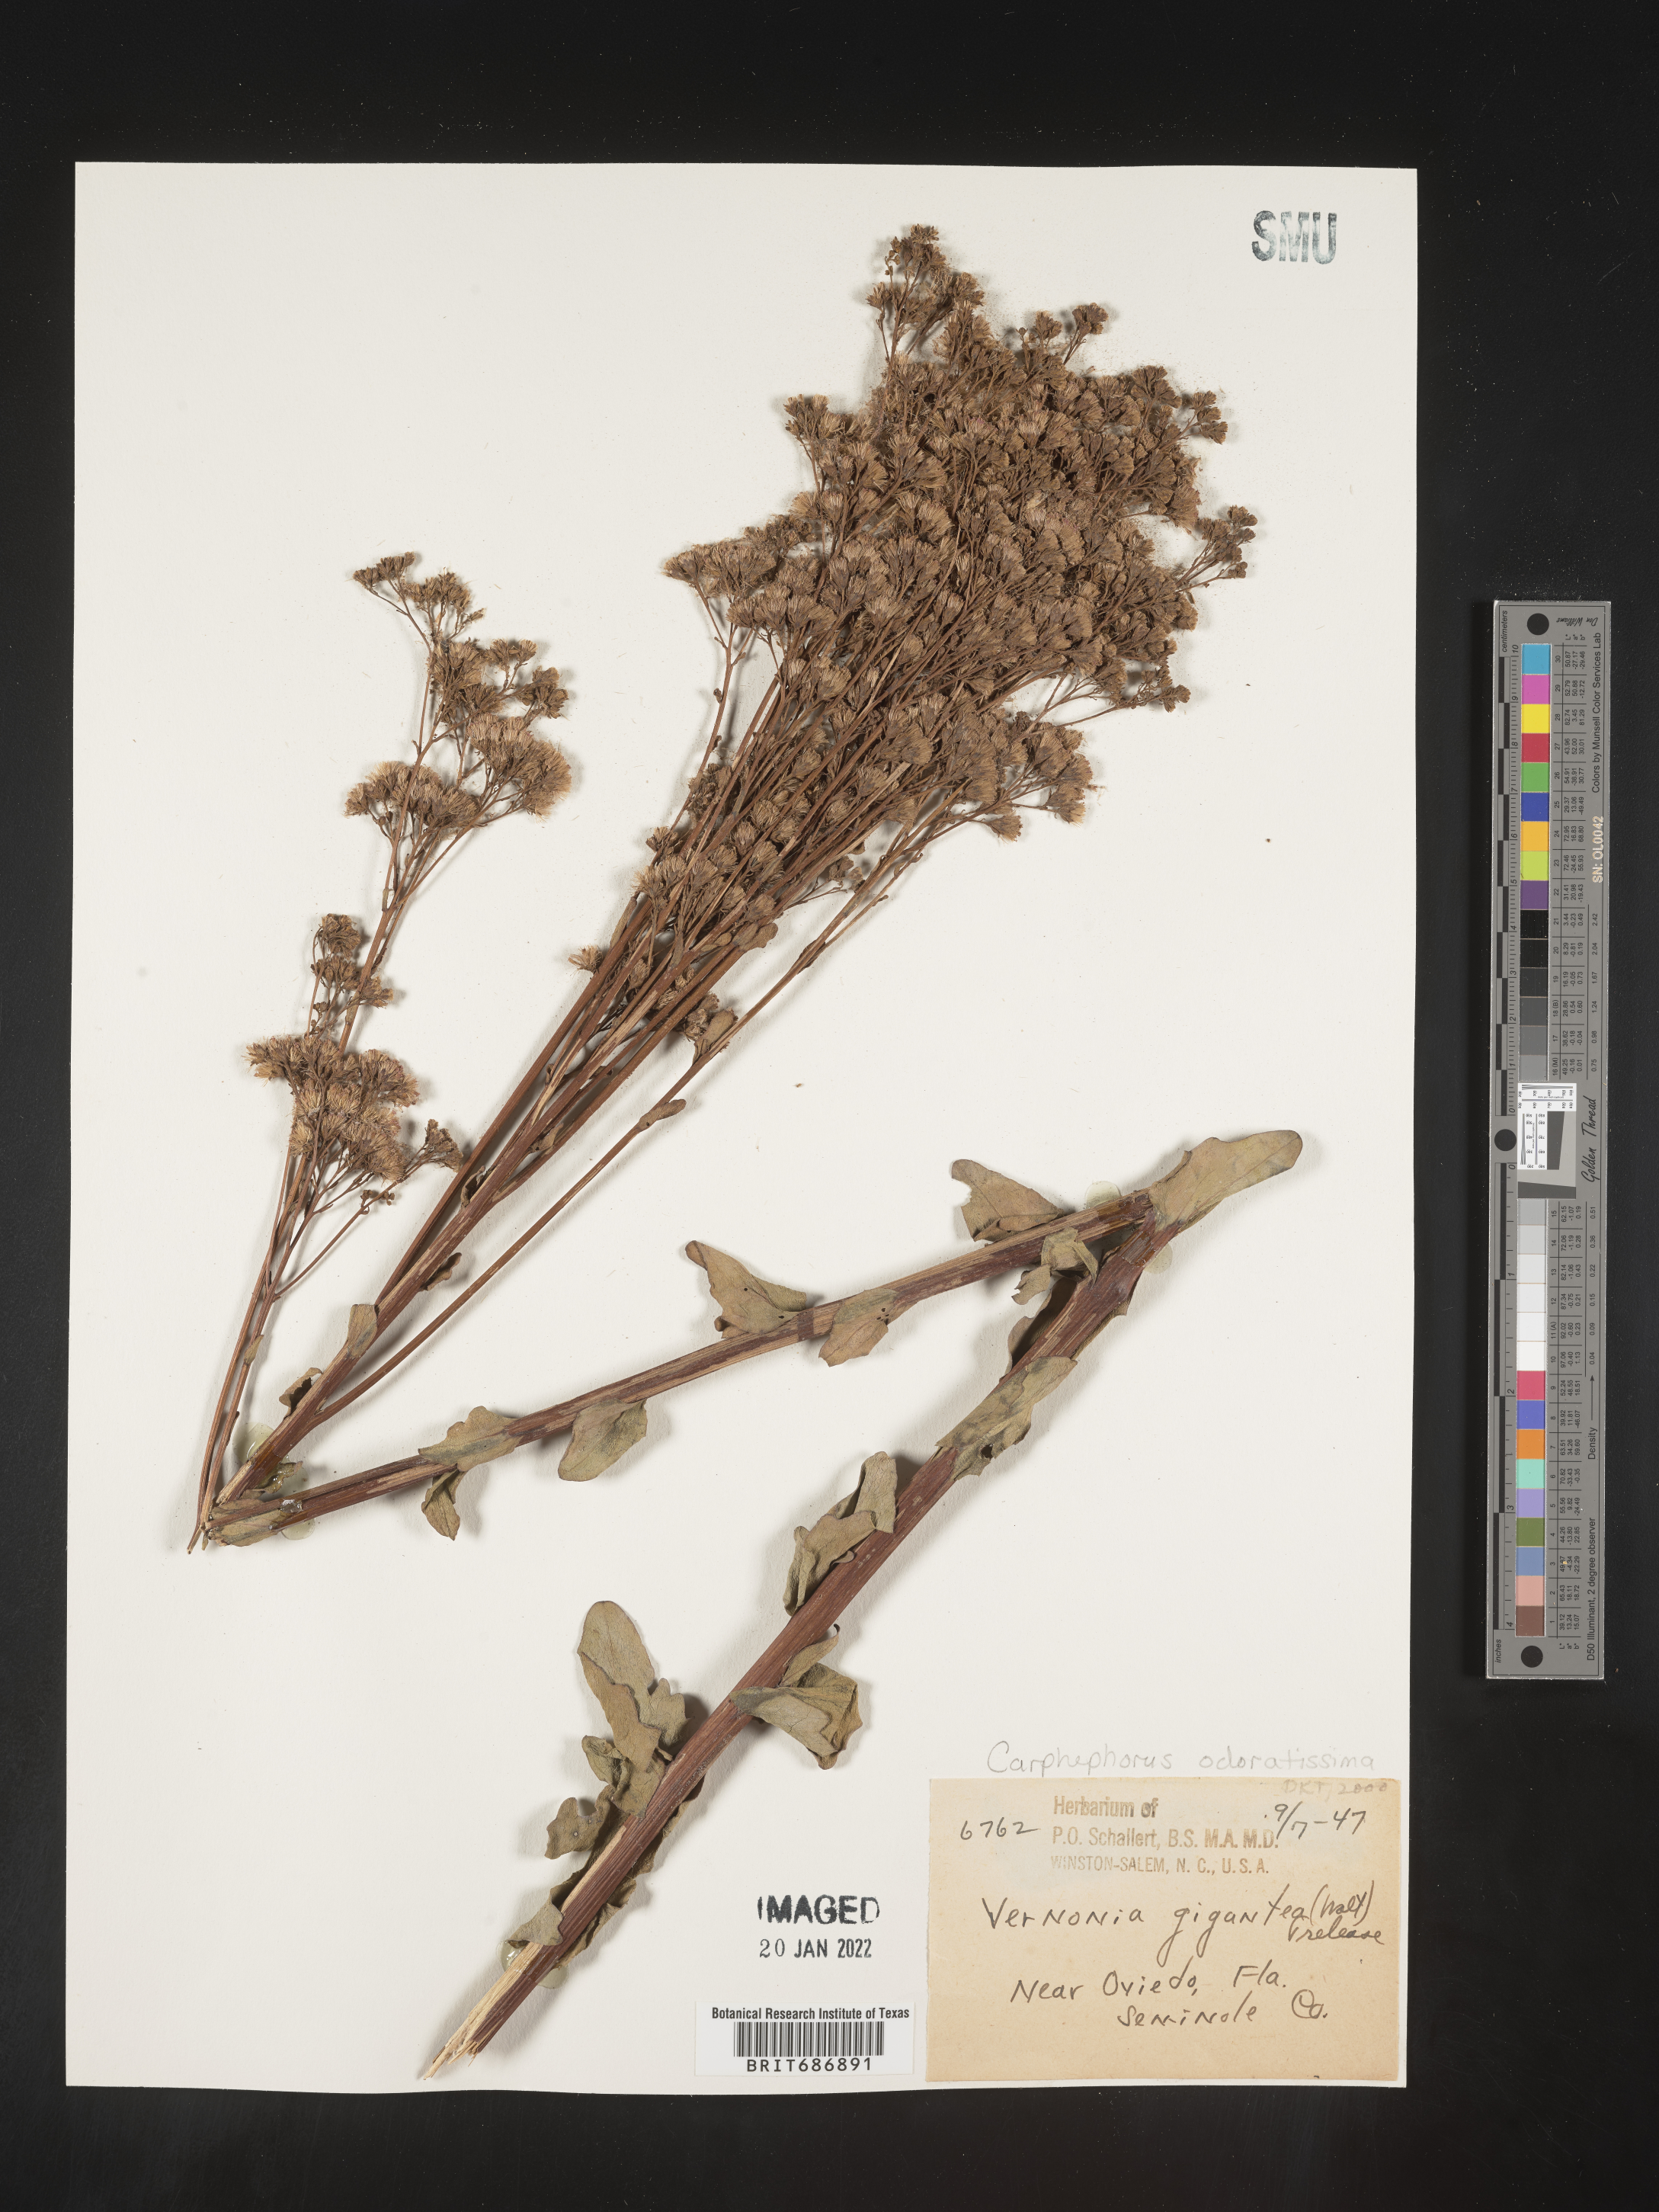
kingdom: Plantae
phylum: Tracheophyta
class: Magnoliopsida
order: Asterales
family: Asteraceae
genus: Carphephorus
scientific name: Carphephorus odoratissimus
